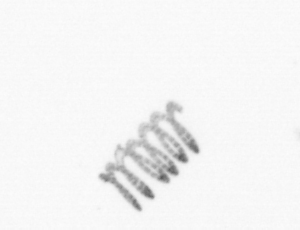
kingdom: Chromista
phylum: Ochrophyta
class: Bacillariophyceae
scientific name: Bacillariophyceae
